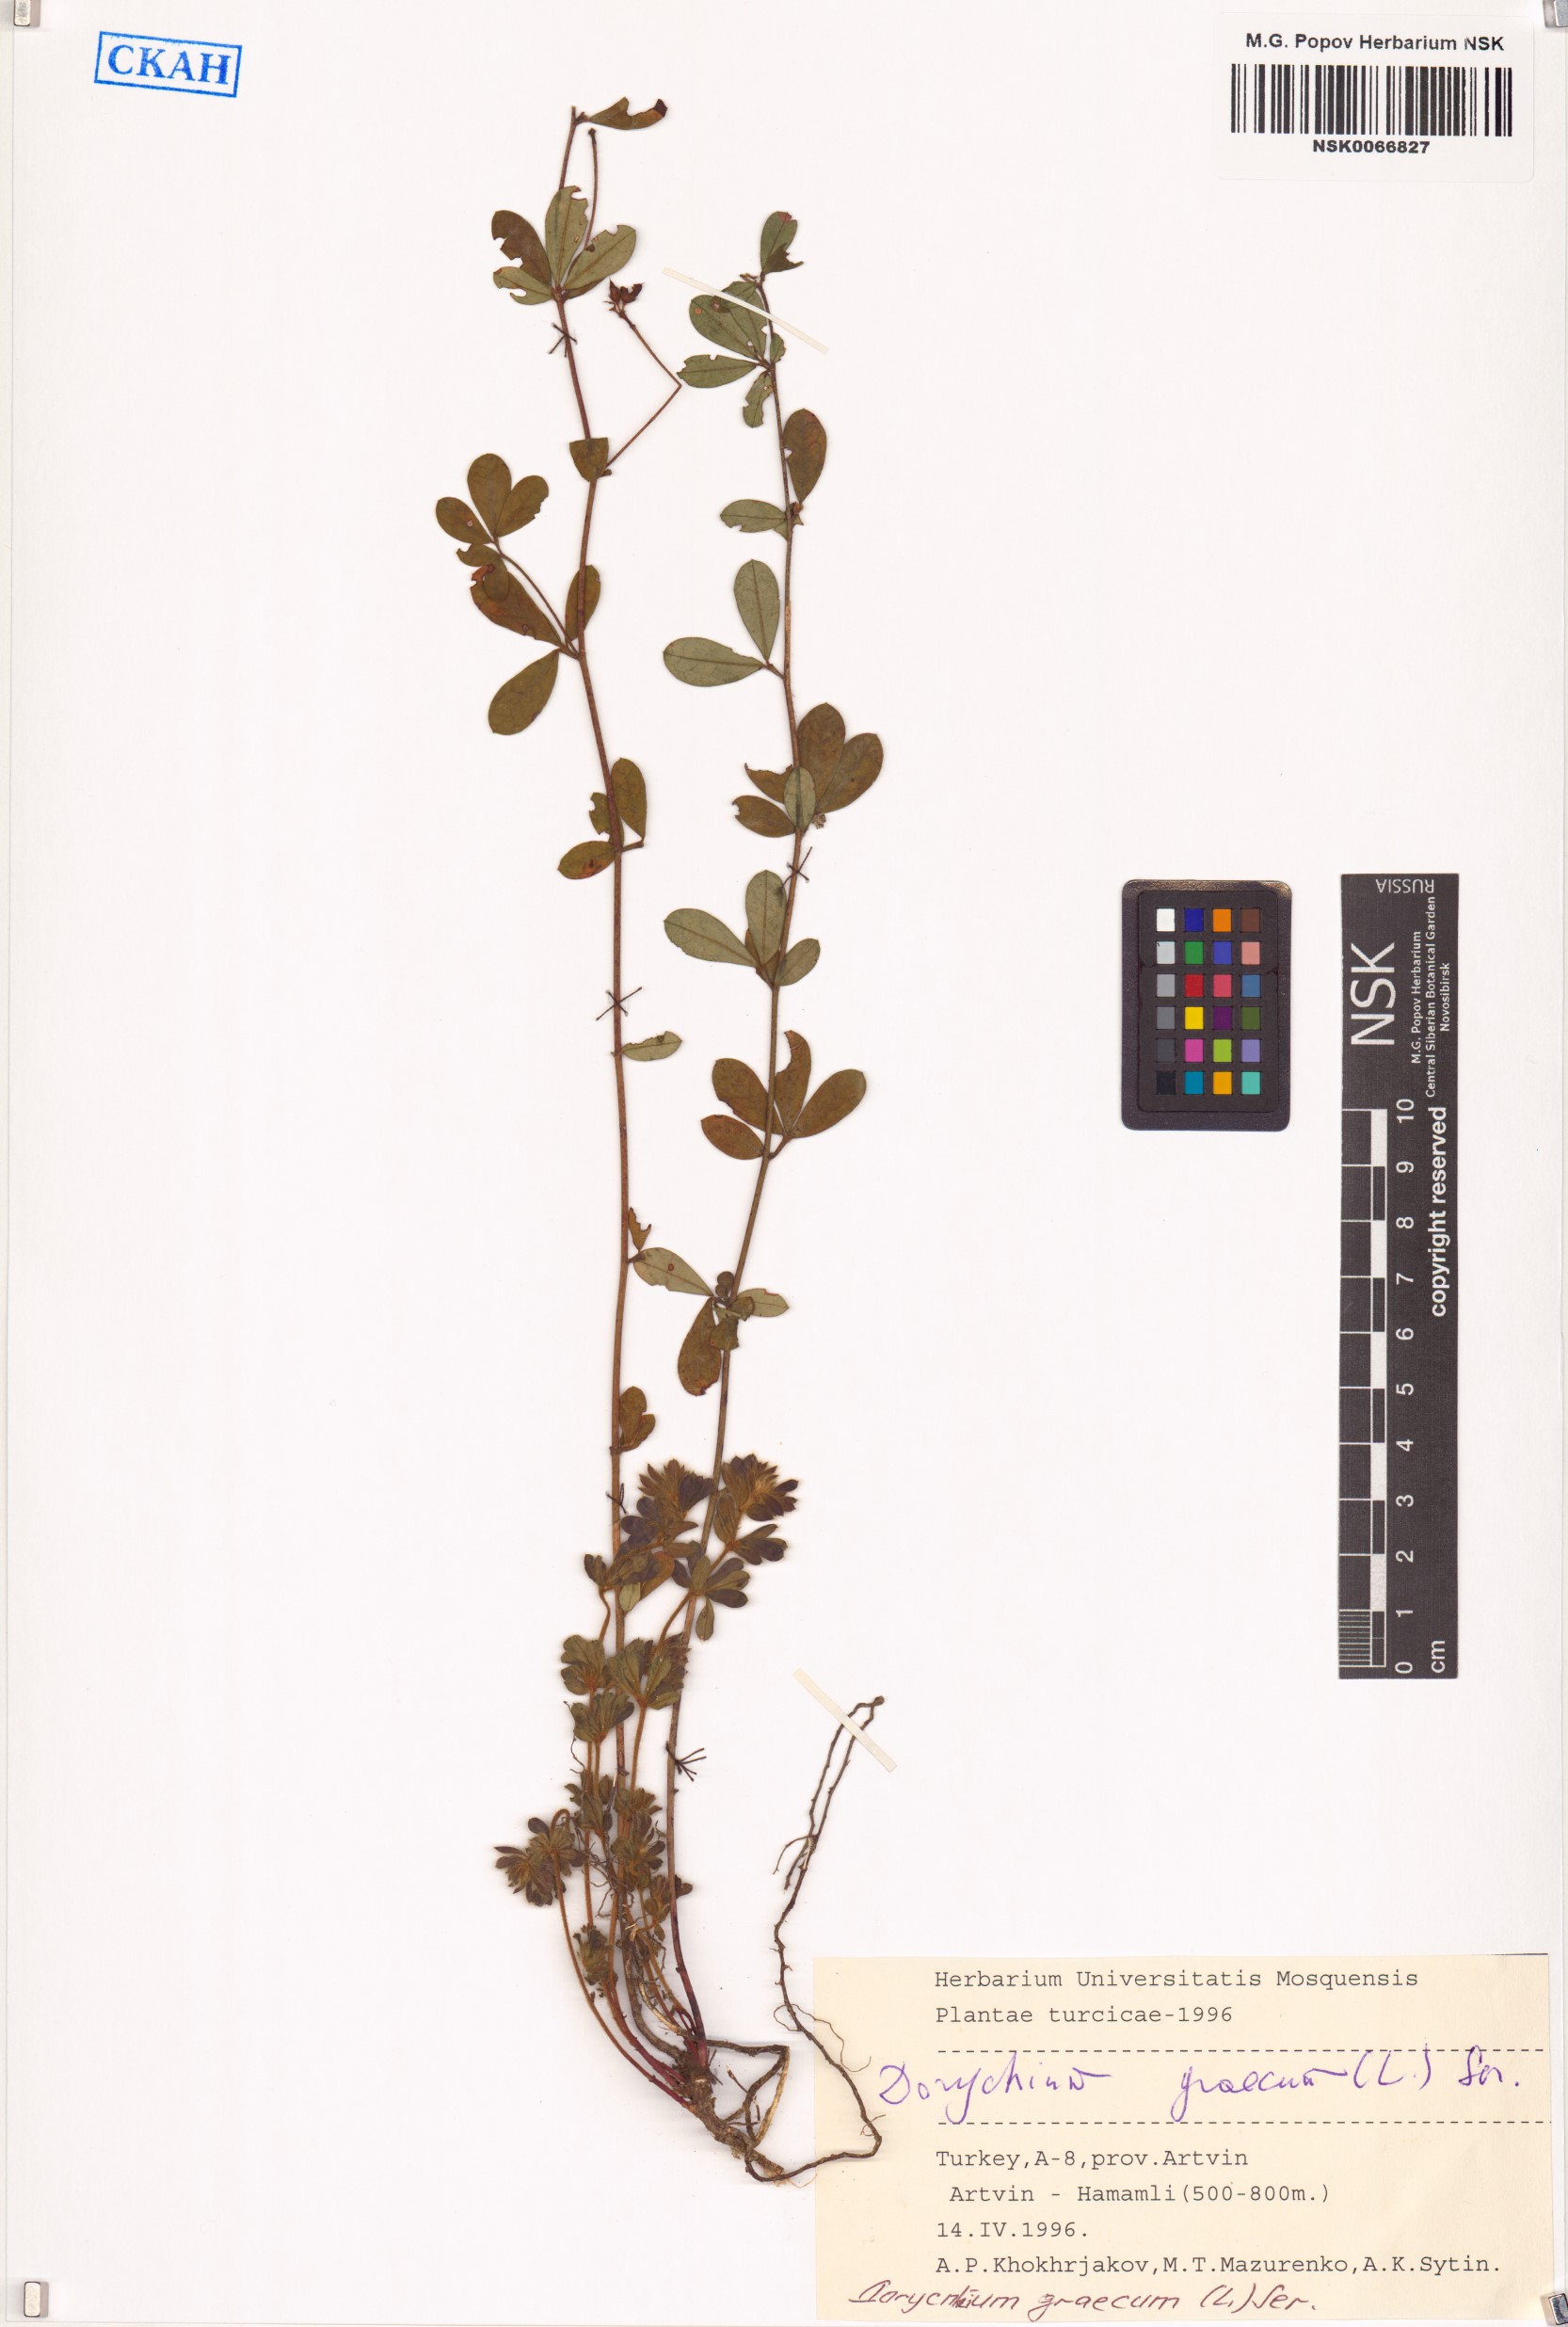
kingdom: Plantae
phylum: Tracheophyta
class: Magnoliopsida
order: Fabales
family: Fabaceae
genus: Lotus
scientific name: Lotus graecus
